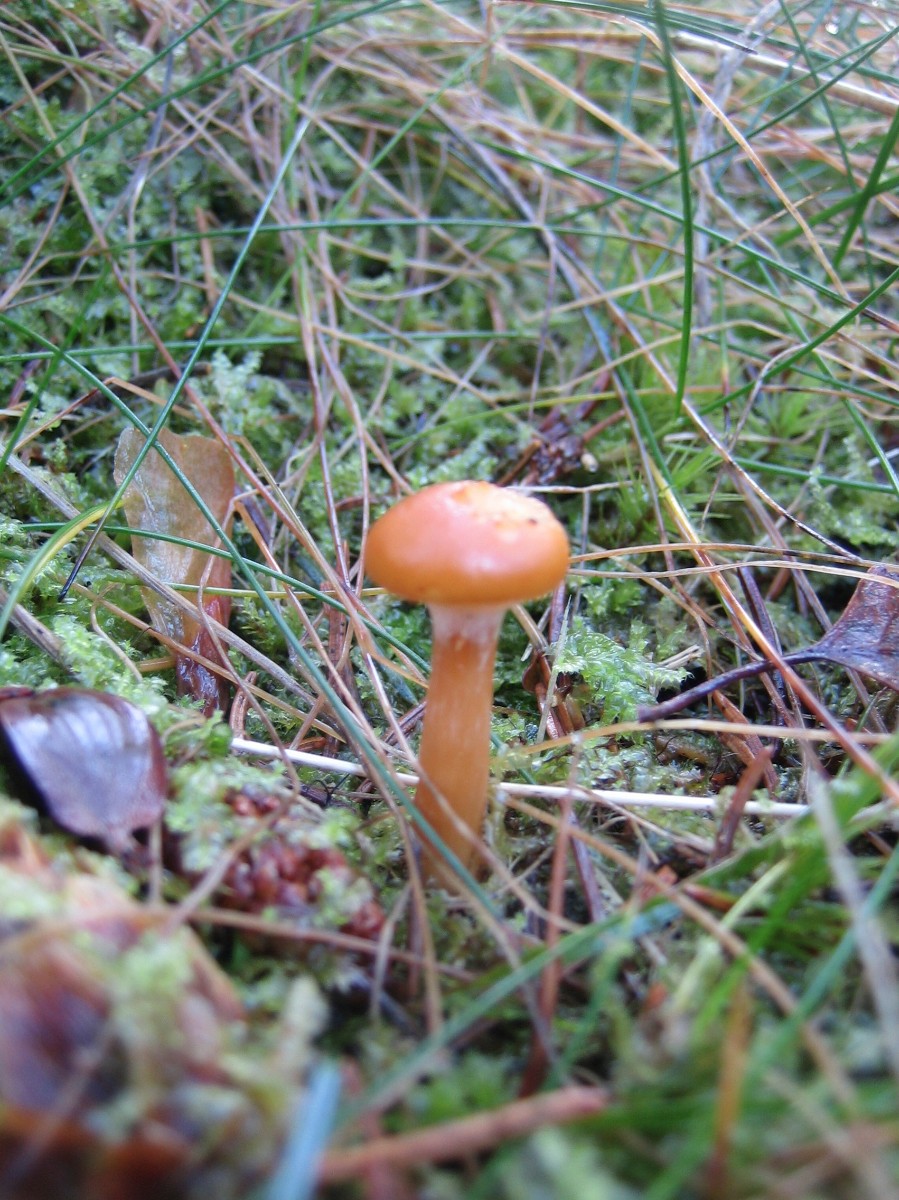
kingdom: Fungi
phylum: Basidiomycota
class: Agaricomycetes
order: Agaricales
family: Hymenogastraceae
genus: Gymnopilus
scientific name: Gymnopilus penetrans
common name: plettet flammehat
